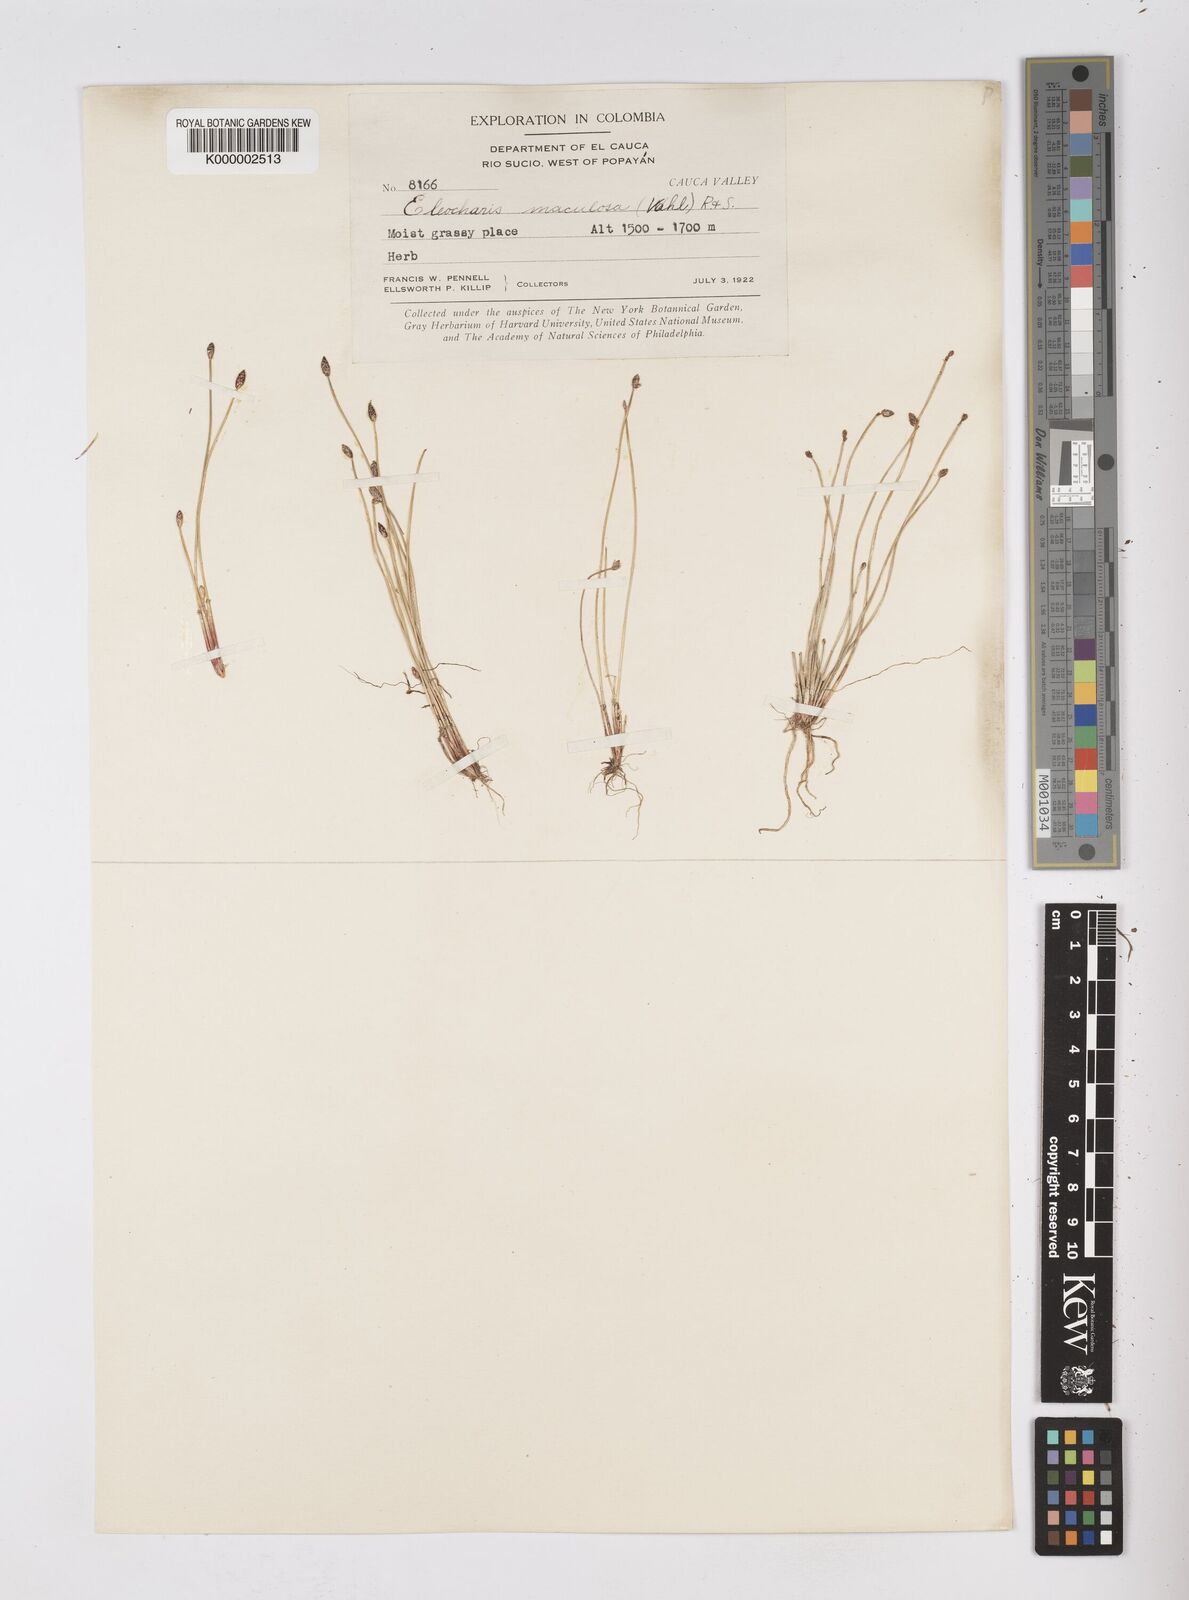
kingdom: Plantae
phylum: Tracheophyta
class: Liliopsida
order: Poales
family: Cyperaceae
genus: Eleocharis
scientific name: Eleocharis maculosa
